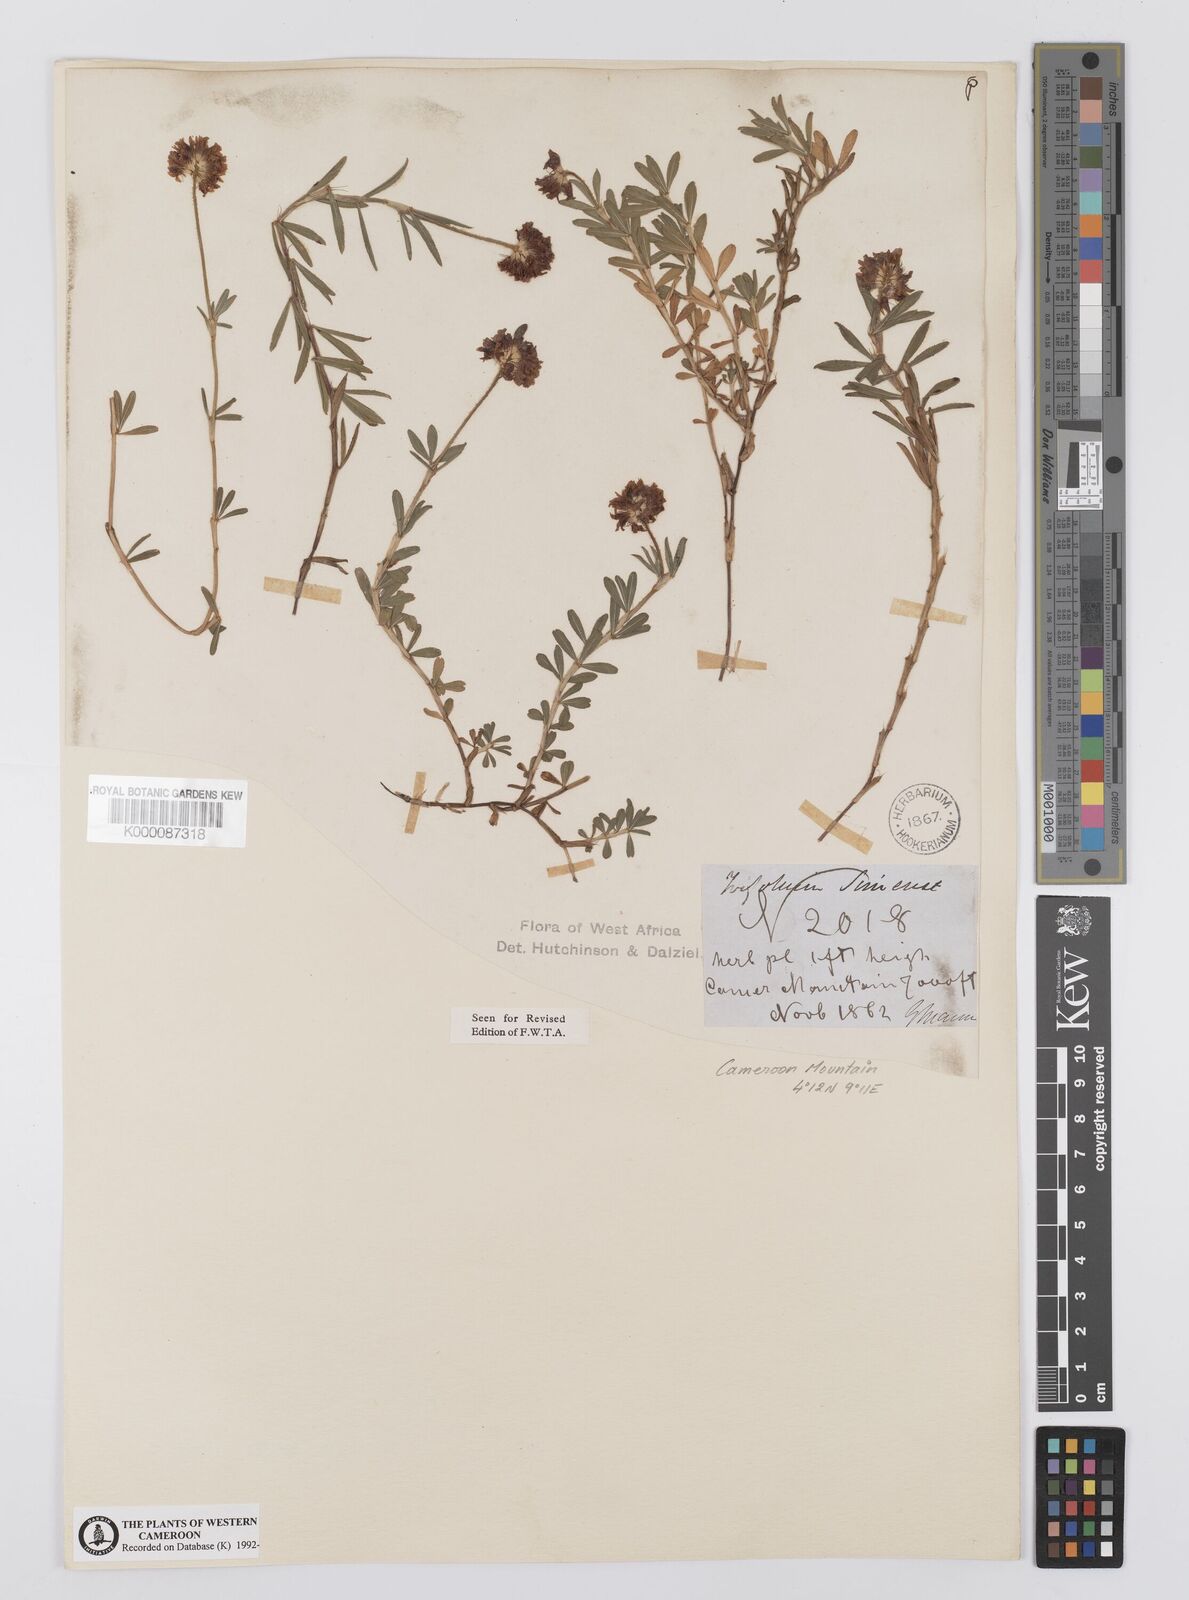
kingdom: Plantae
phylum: Tracheophyta
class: Magnoliopsida
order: Fabales
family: Fabaceae
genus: Trifolium
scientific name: Trifolium simense
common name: Simen clover
